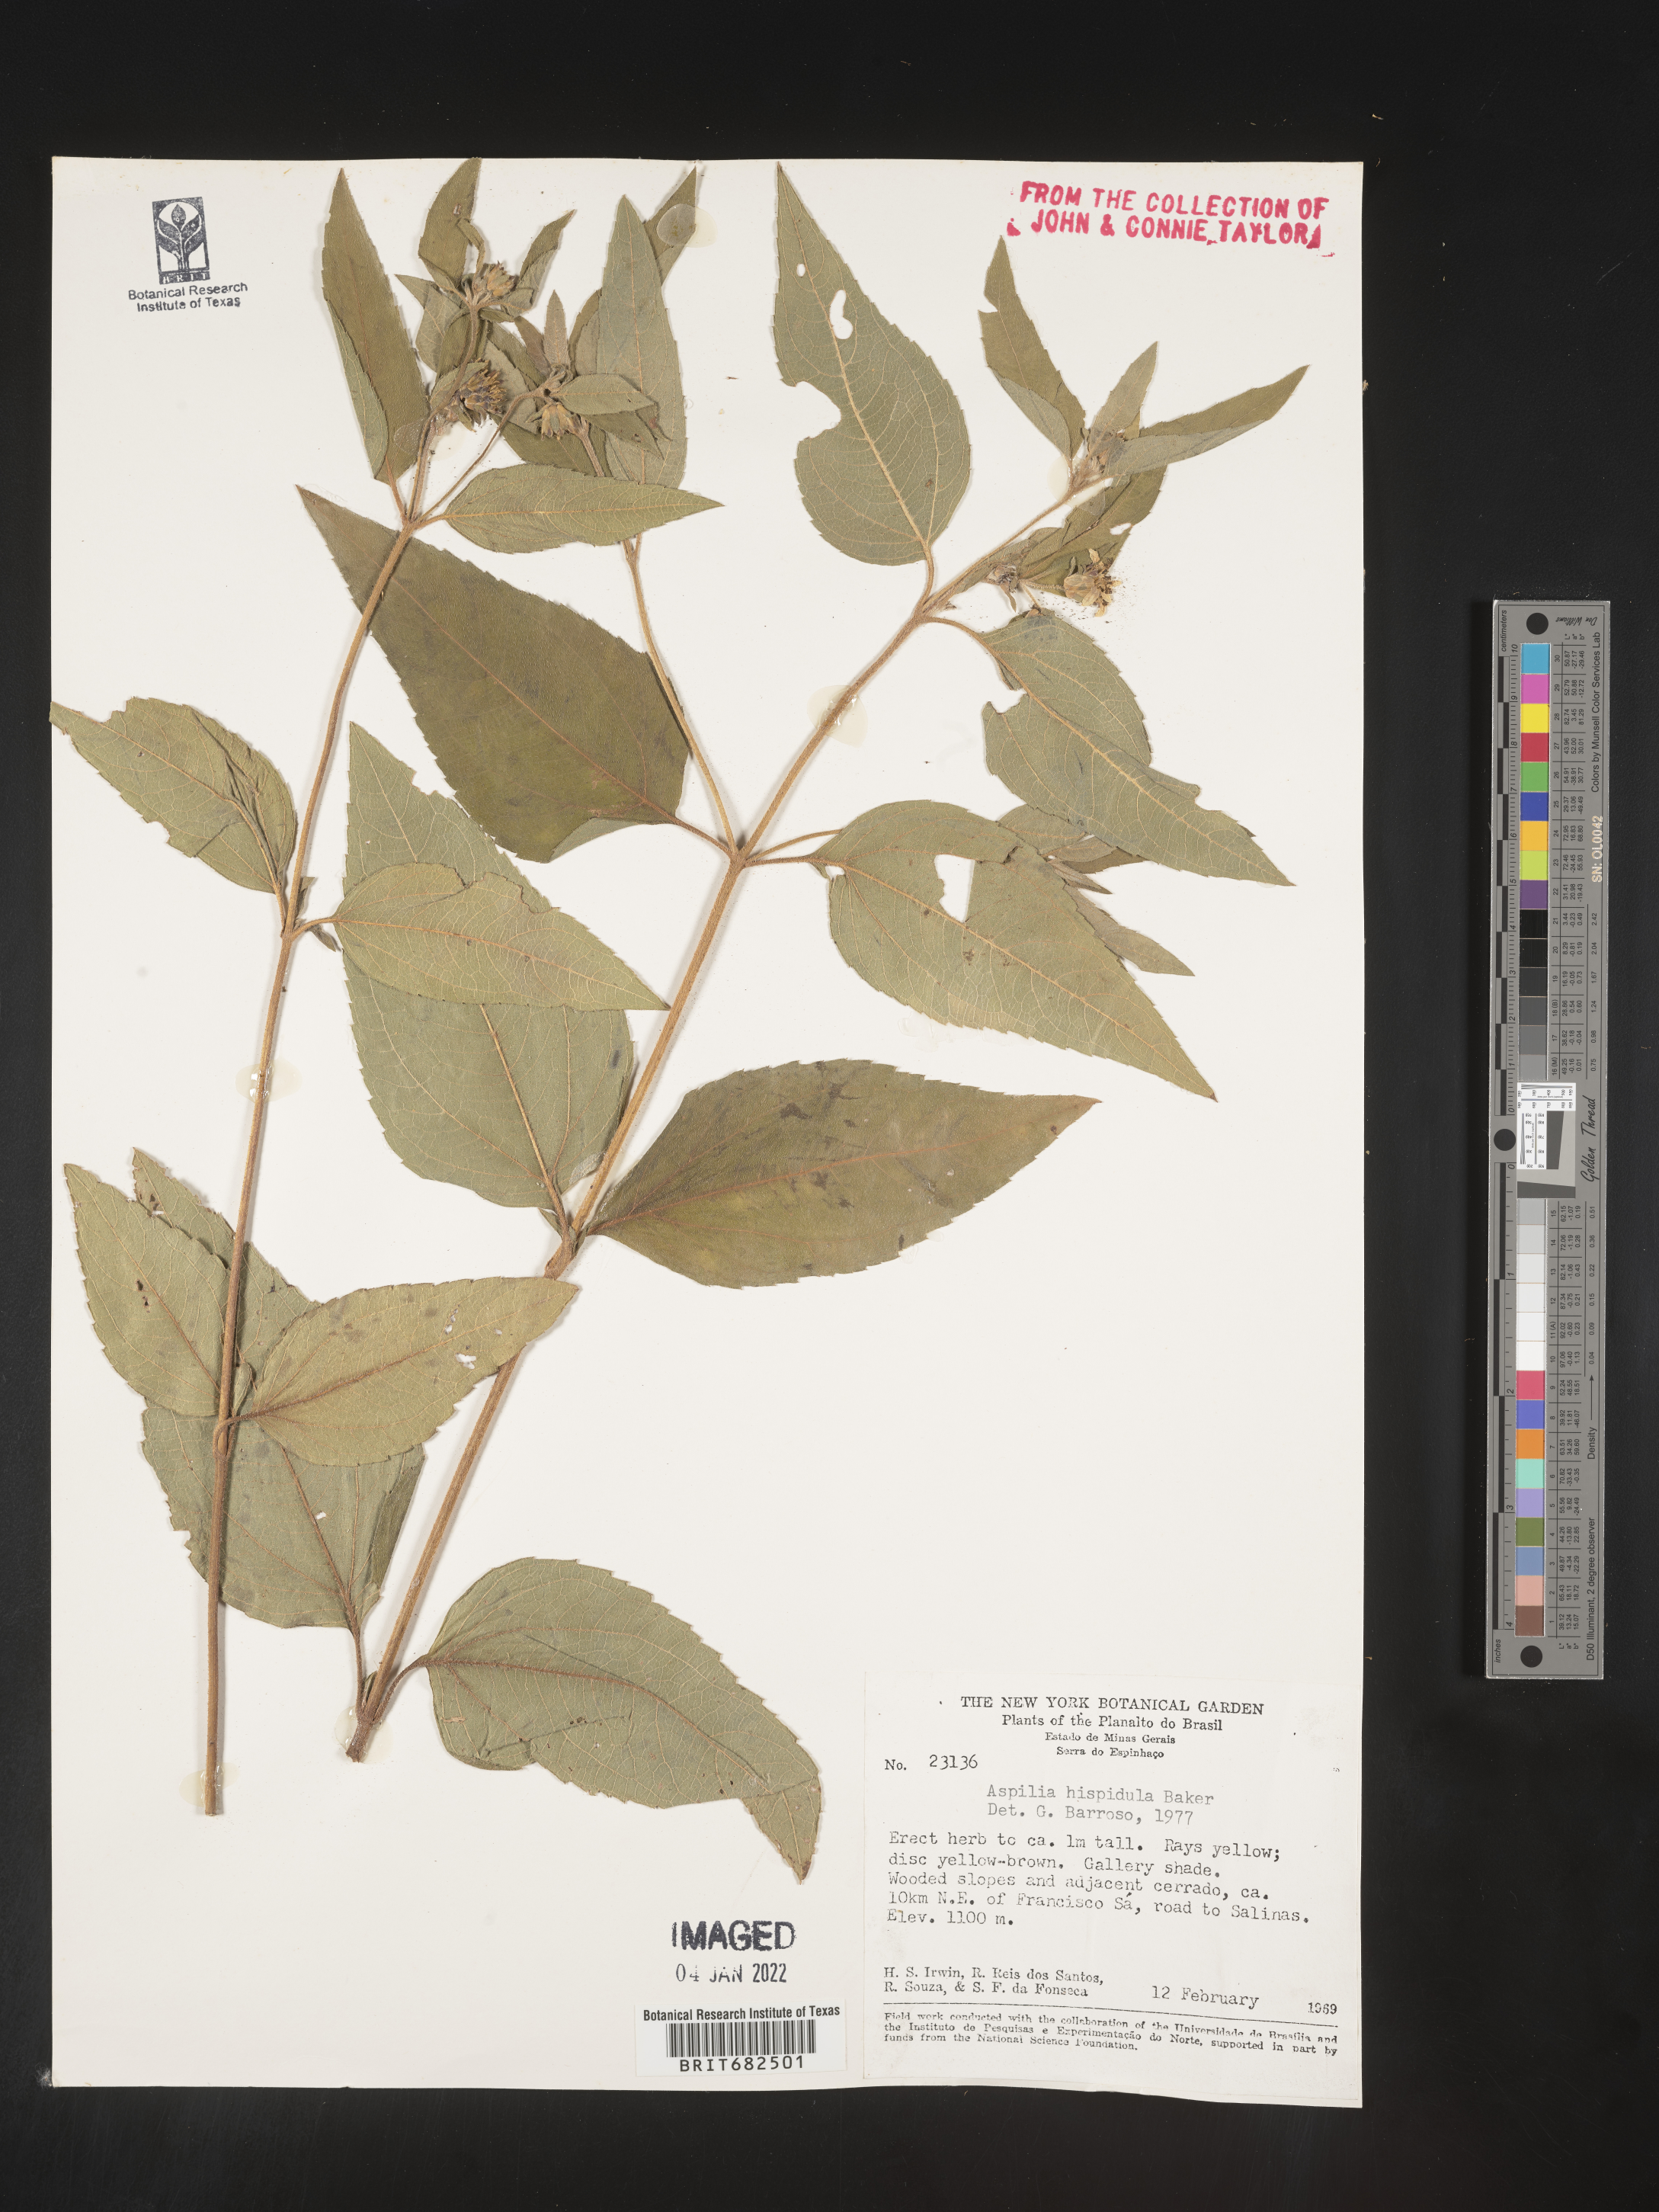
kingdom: Plantae
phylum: Tracheophyta
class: Magnoliopsida
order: Asterales
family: Asteraceae
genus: Aspilia
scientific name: Aspilia
